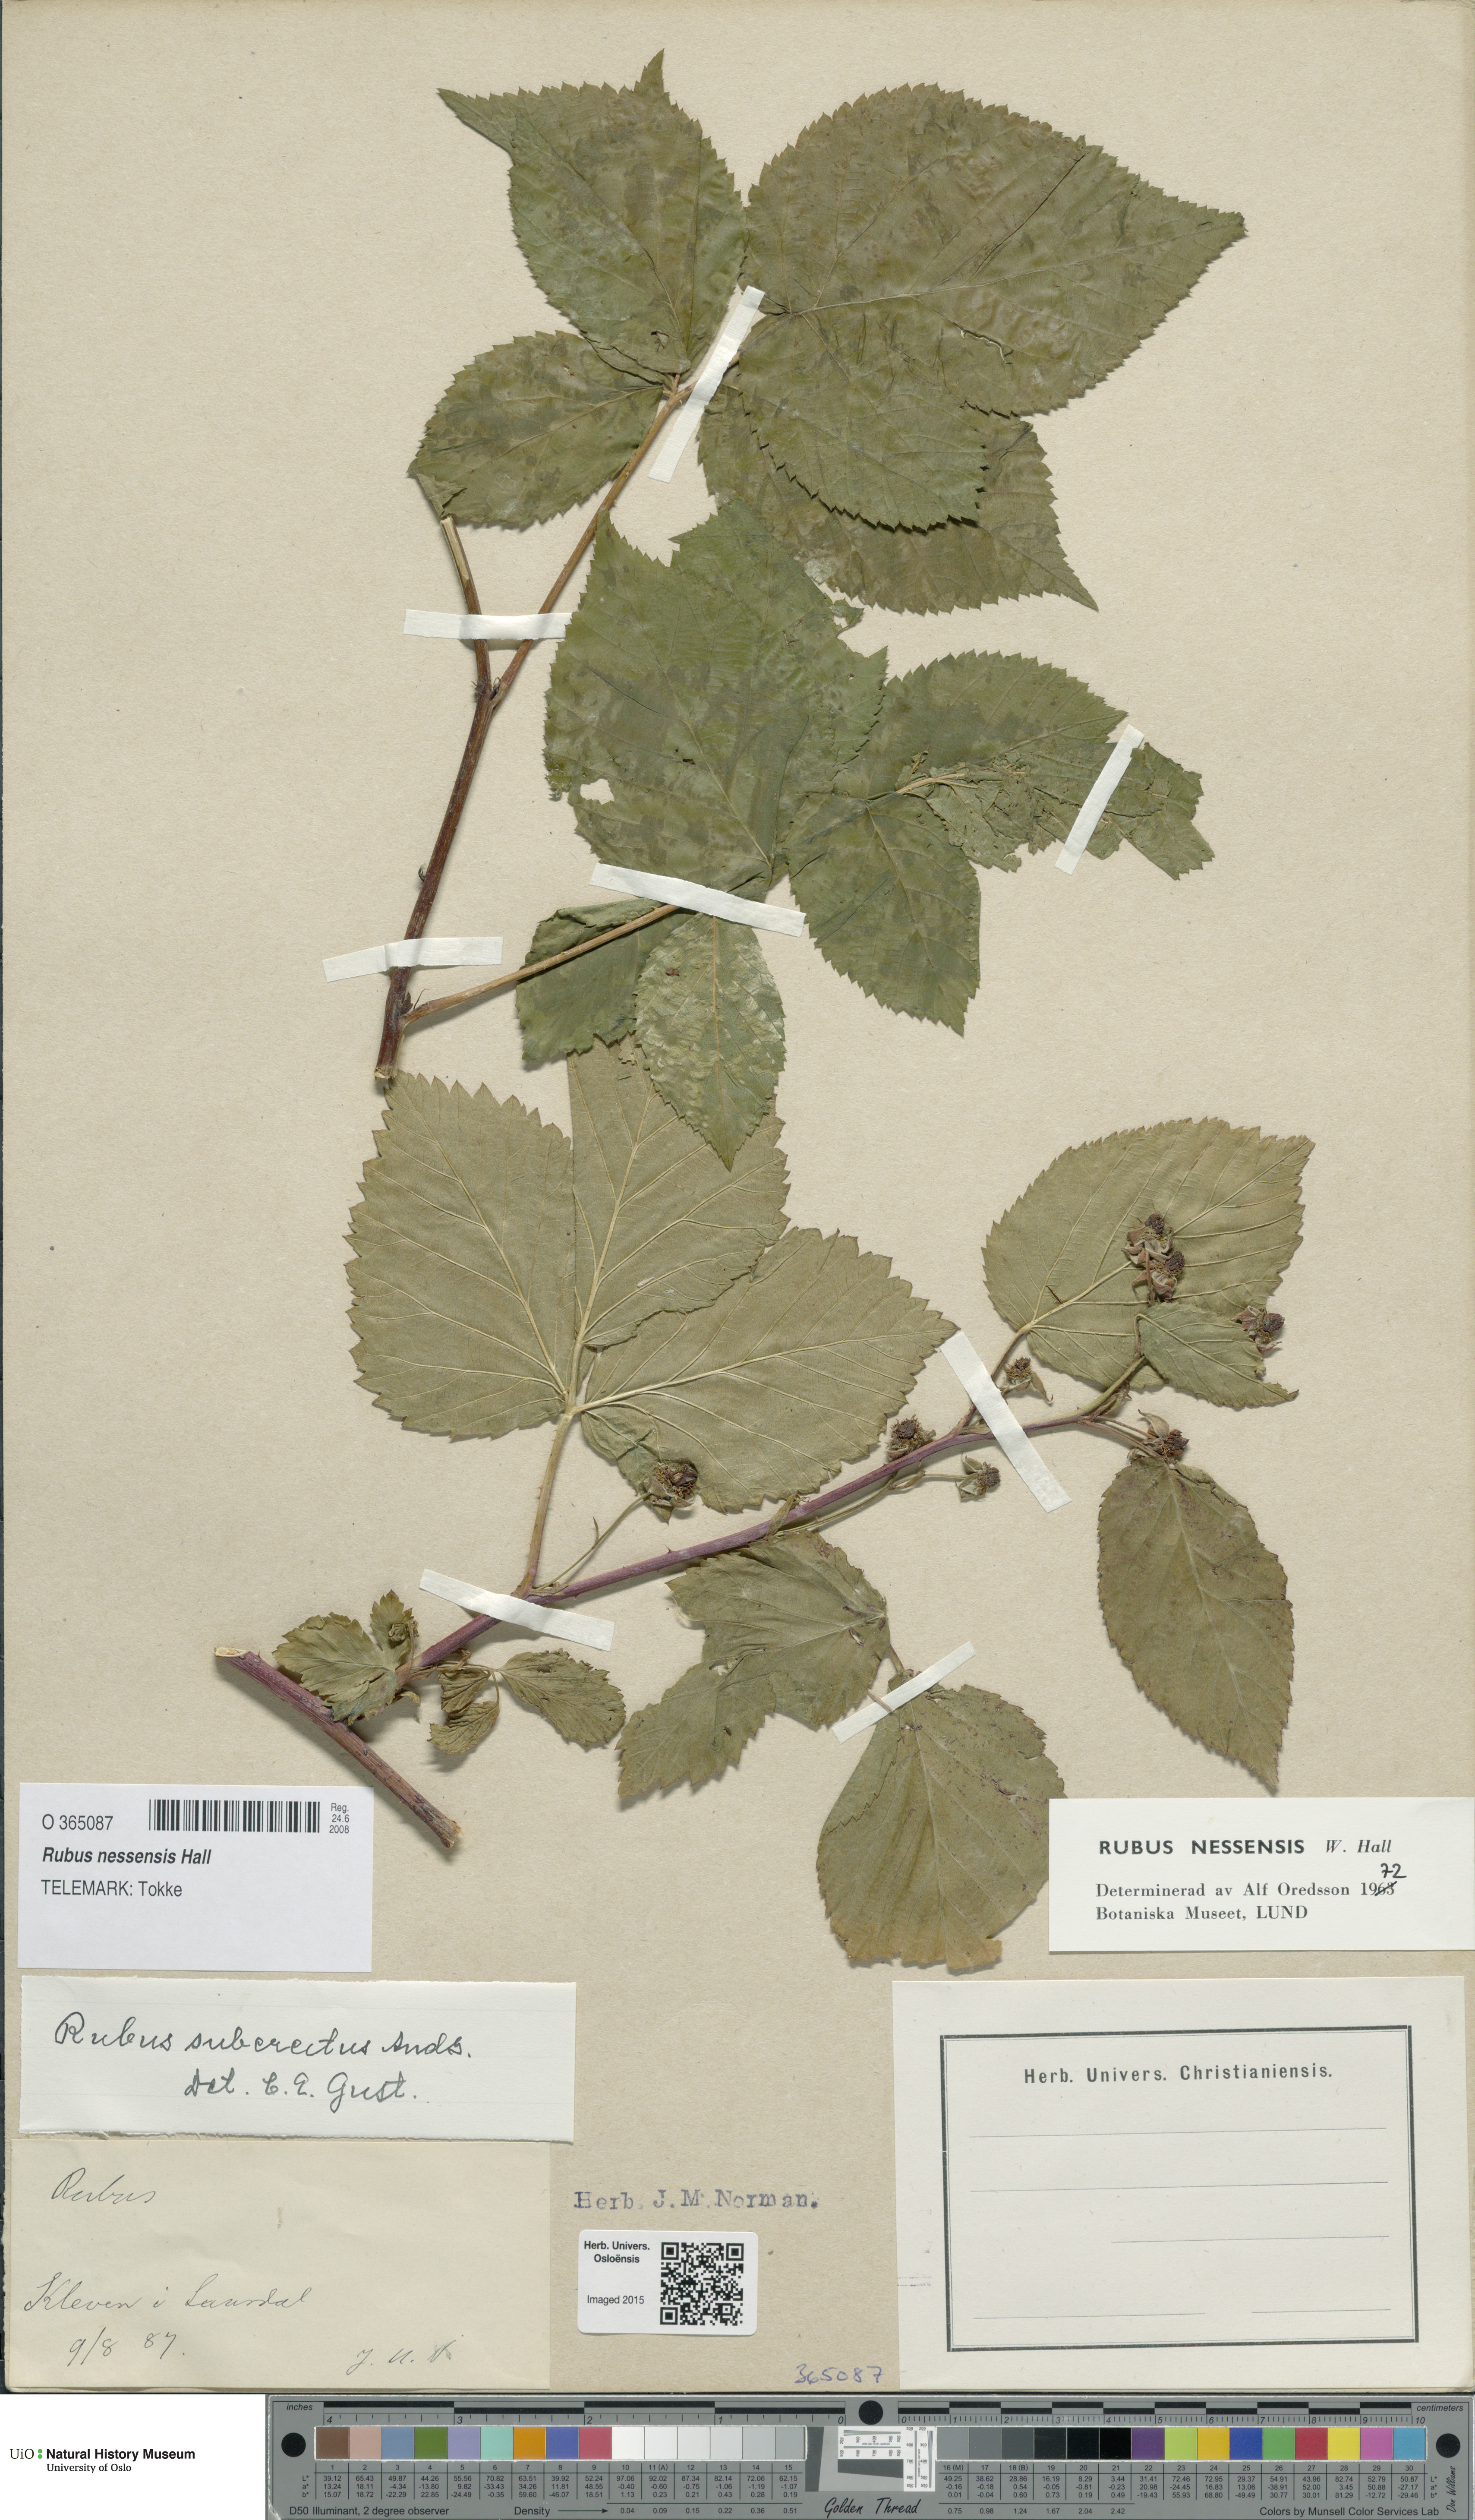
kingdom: Plantae
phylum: Tracheophyta
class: Magnoliopsida
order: Rosales
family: Rosaceae
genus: Rubus
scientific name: Rubus polonicus
